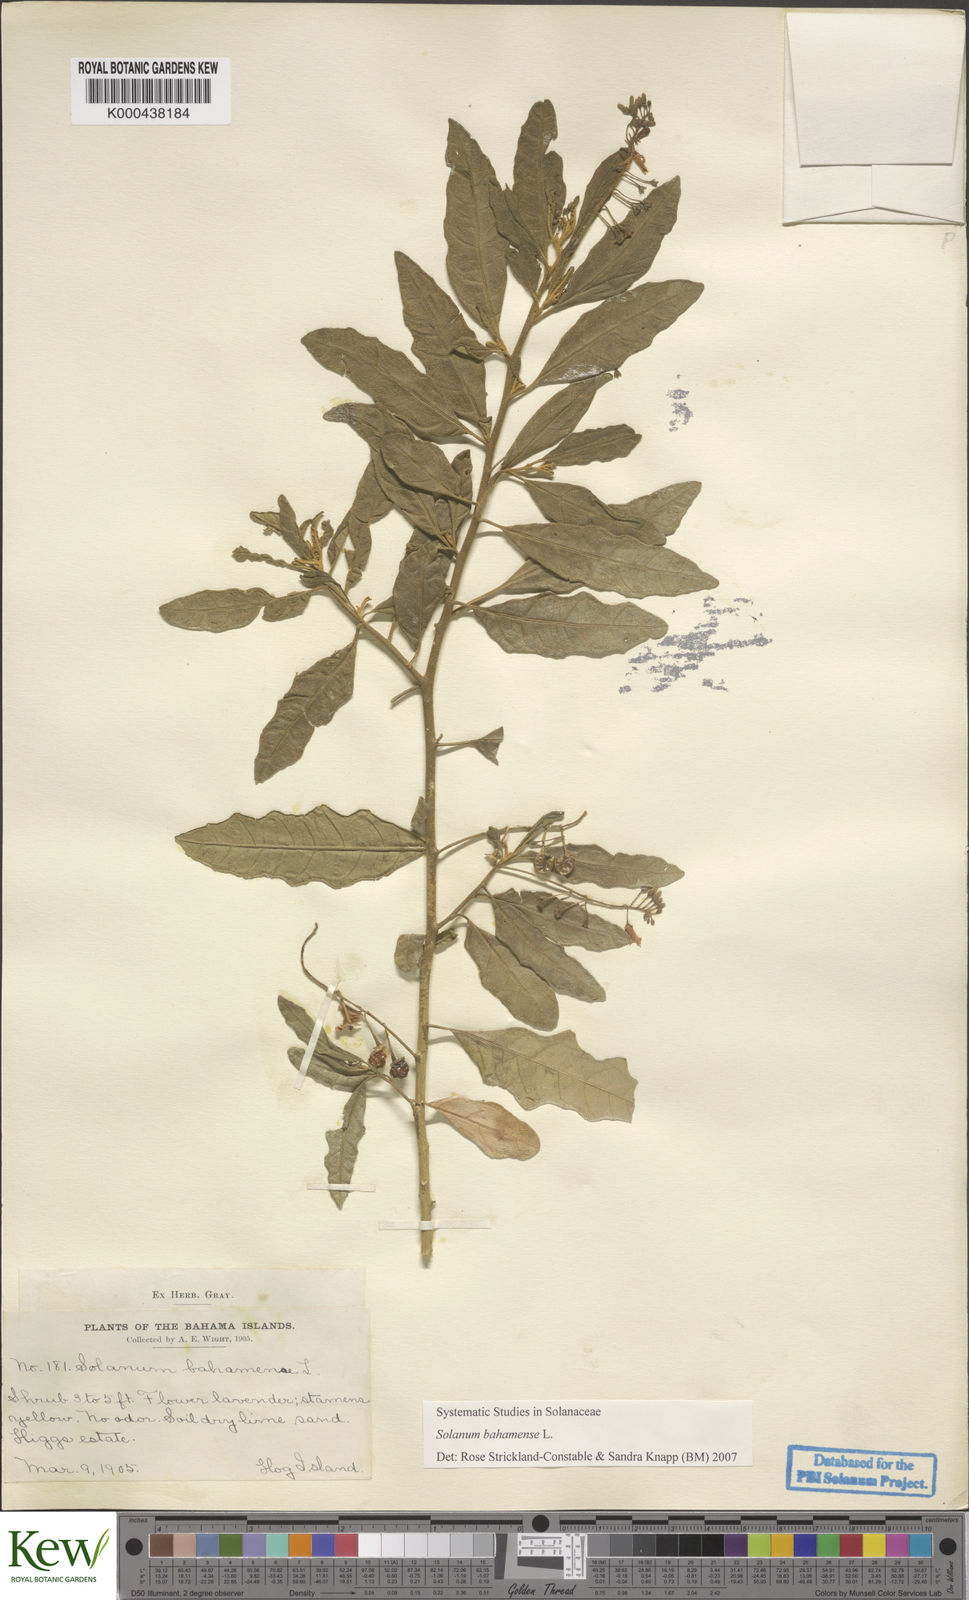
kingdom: Plantae
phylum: Tracheophyta
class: Magnoliopsida
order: Solanales
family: Solanaceae
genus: Solanum
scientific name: Solanum bahamense
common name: Canker-berry
